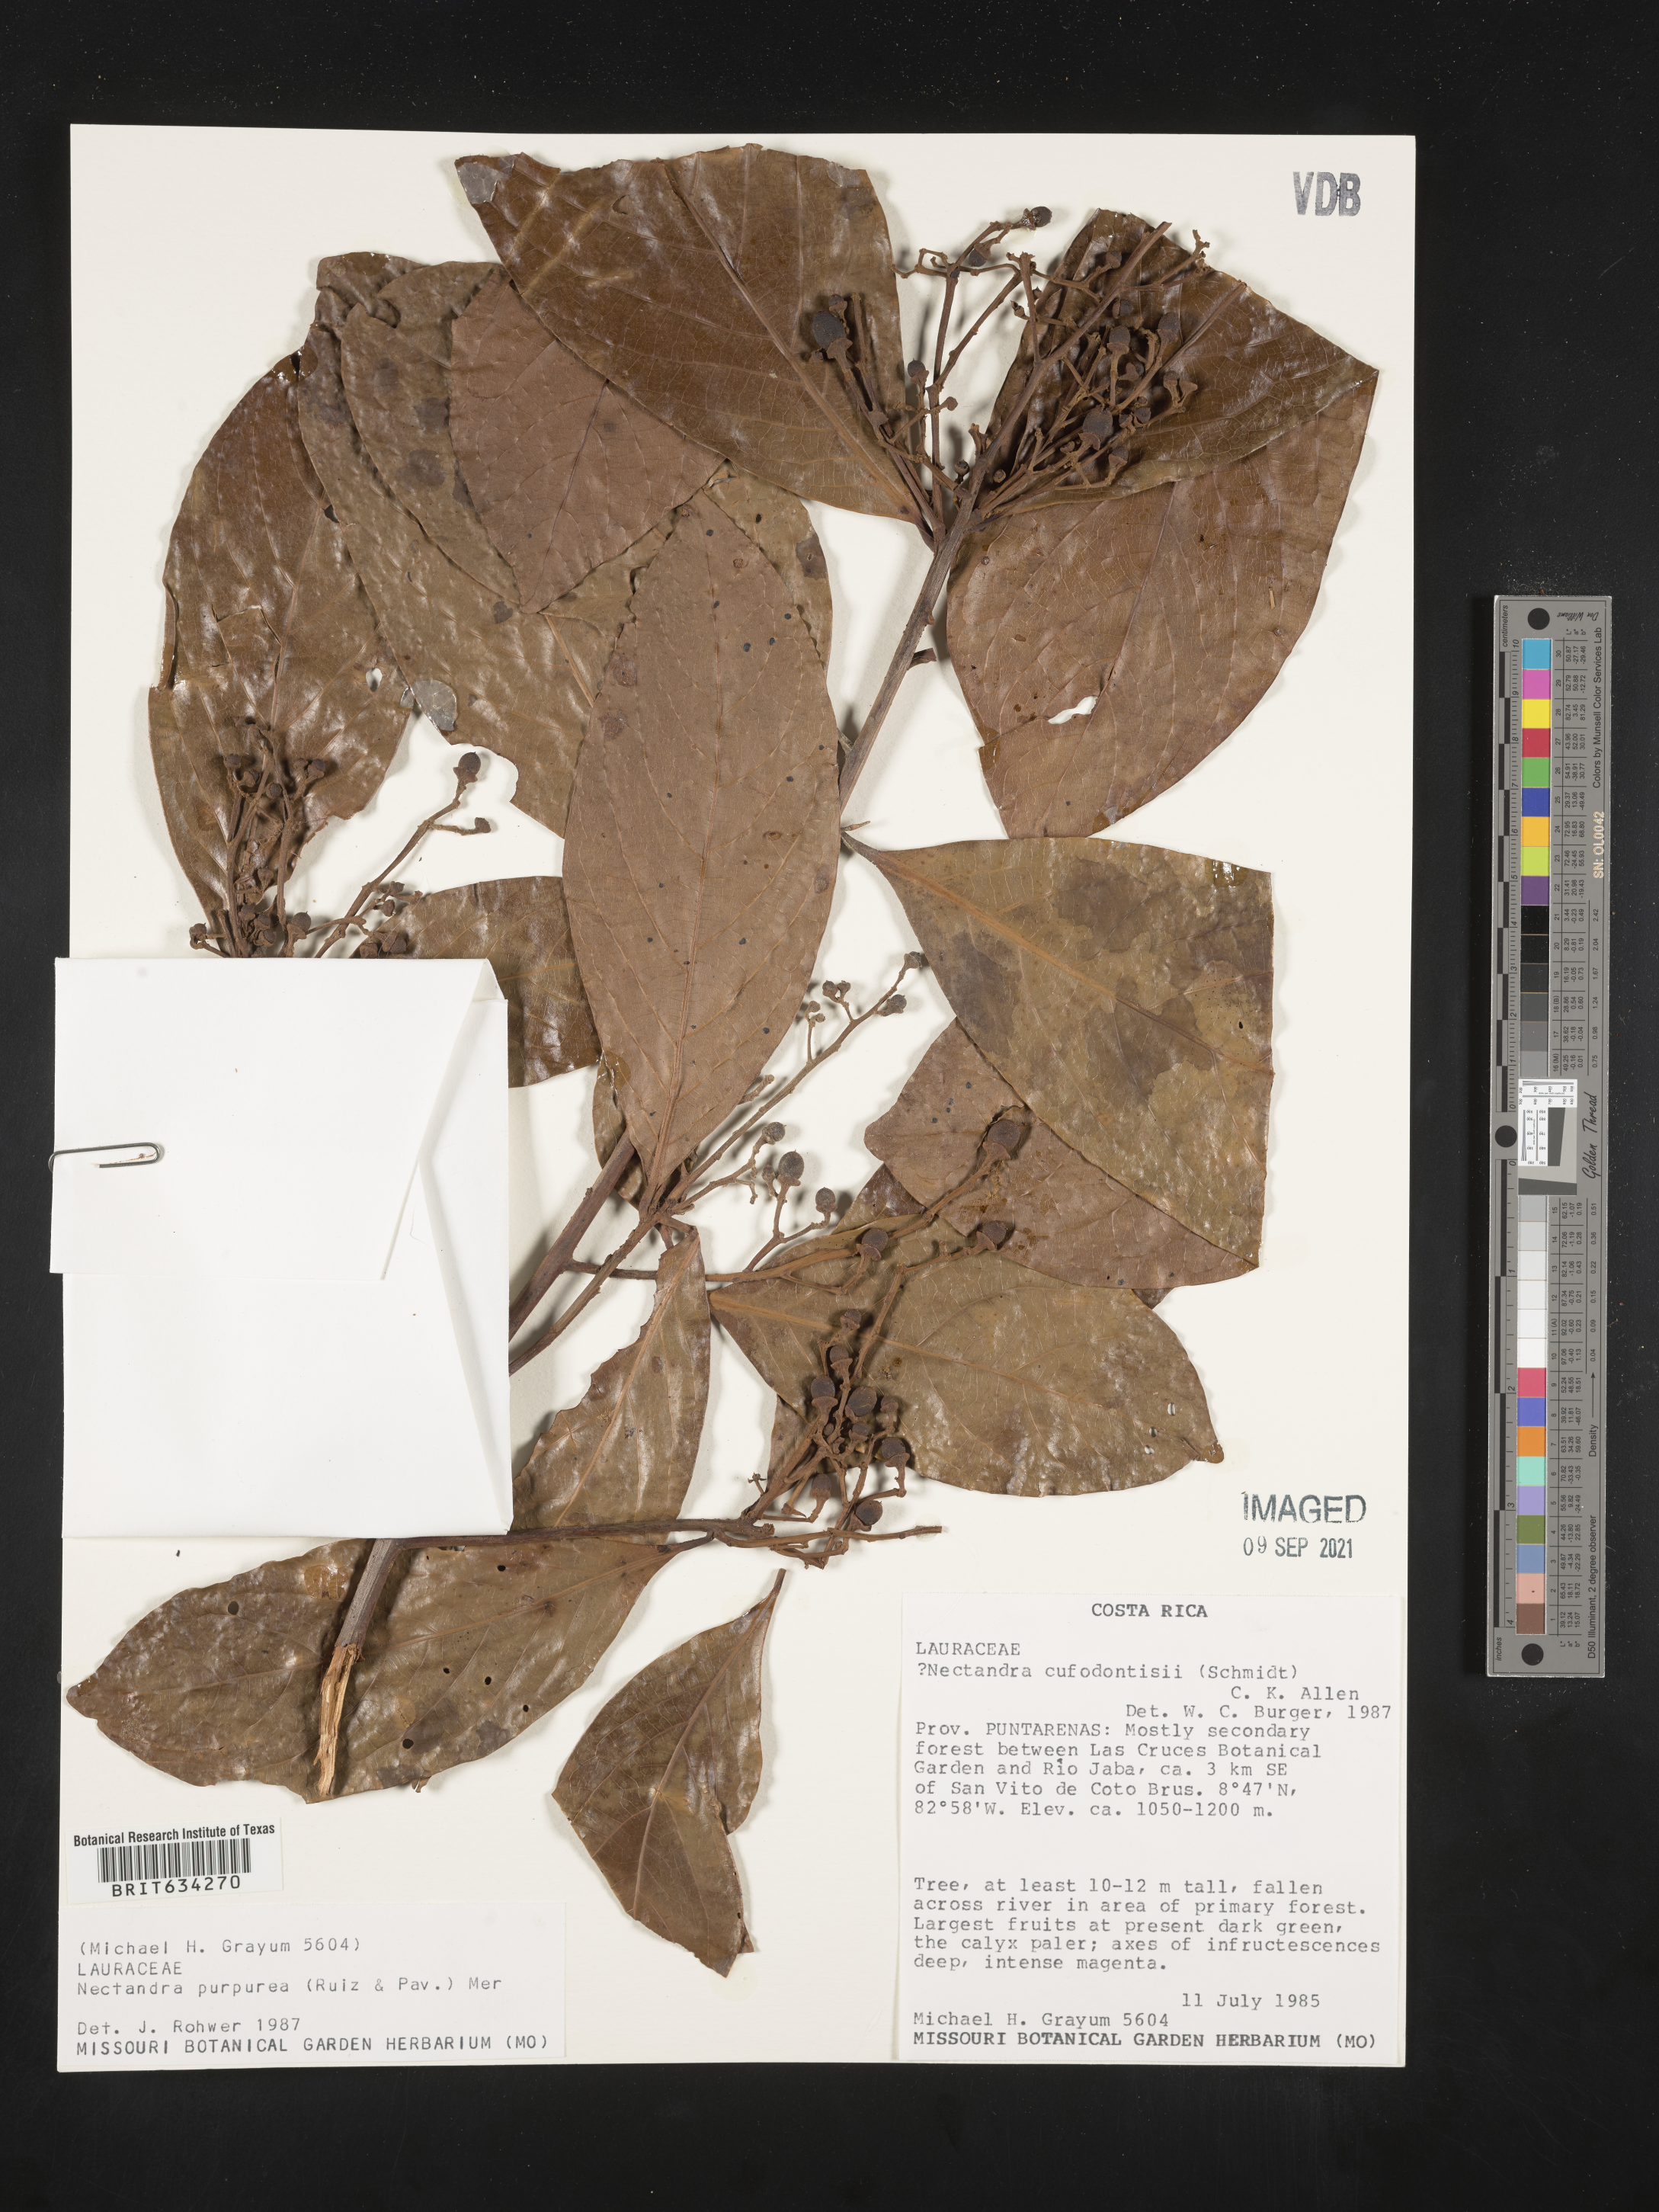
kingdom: Plantae
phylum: Tracheophyta
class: Magnoliopsida
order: Laurales
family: Lauraceae
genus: Nectandra
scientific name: Nectandra
